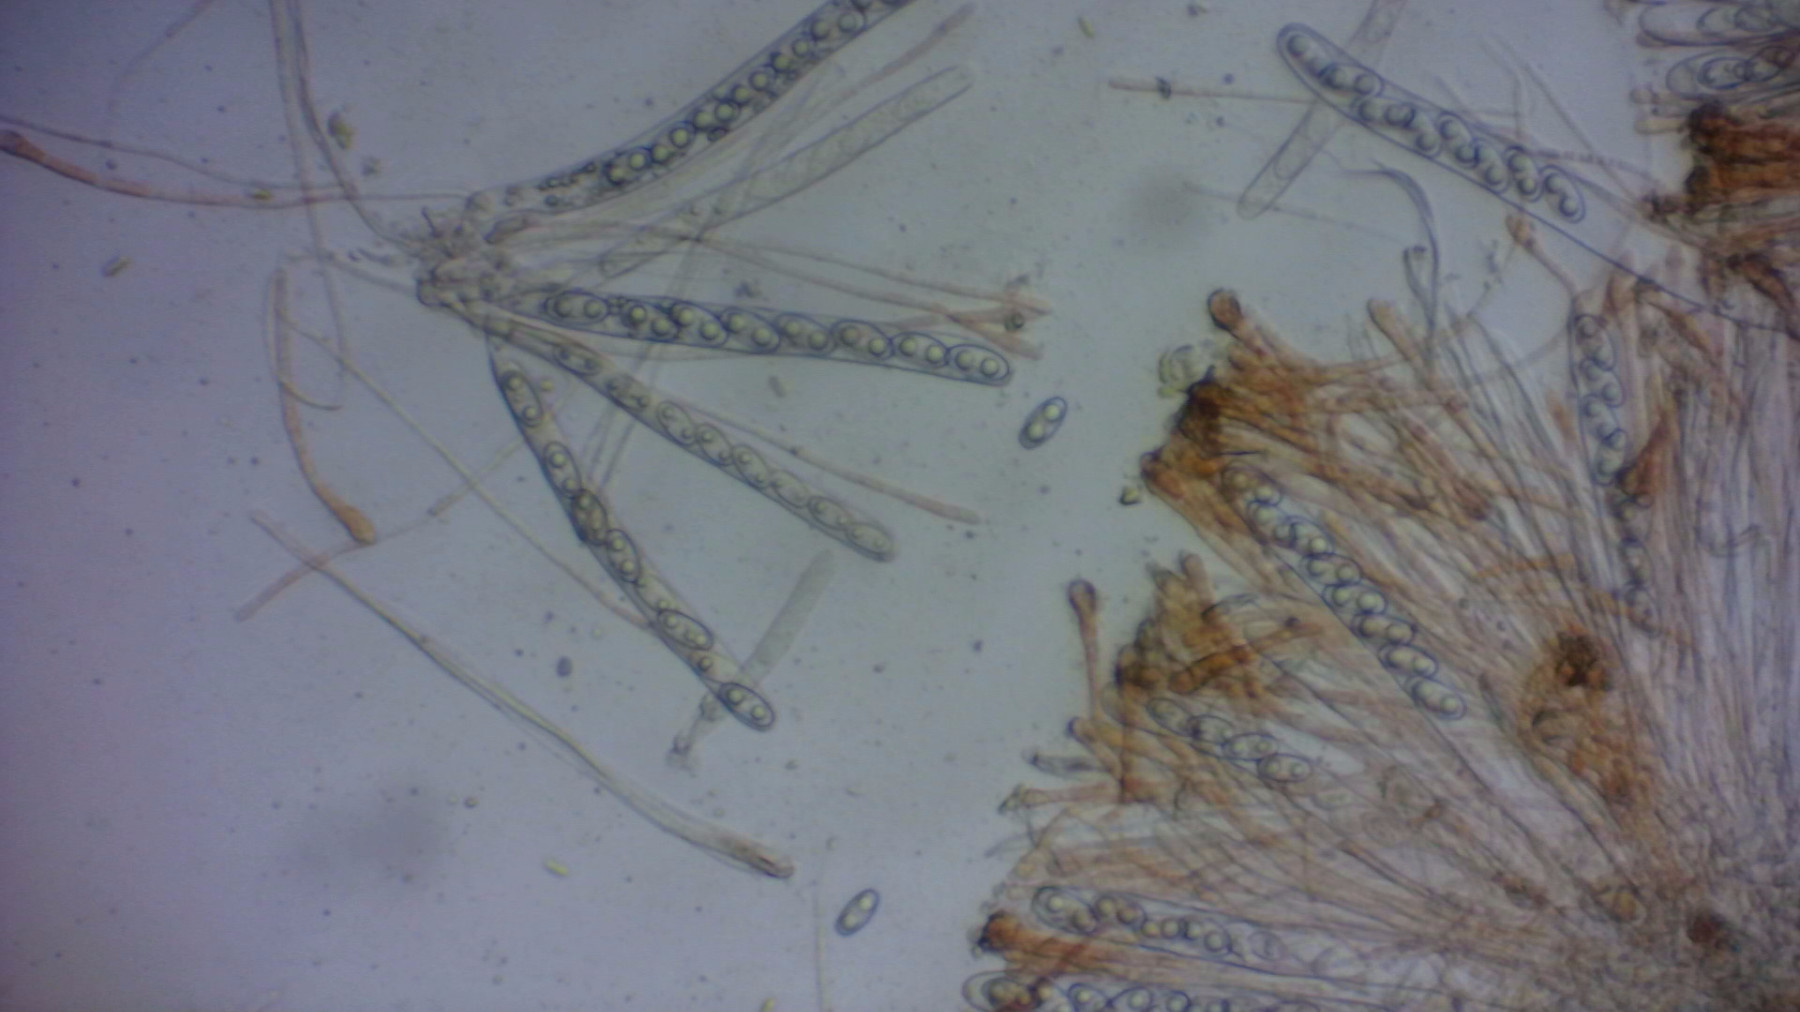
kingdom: Fungi
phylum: Ascomycota
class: Pezizomycetes
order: Pezizales
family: Pyronemataceae
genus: Anthracobia
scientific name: Anthracobia melaloma
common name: flamme-ildbæger
